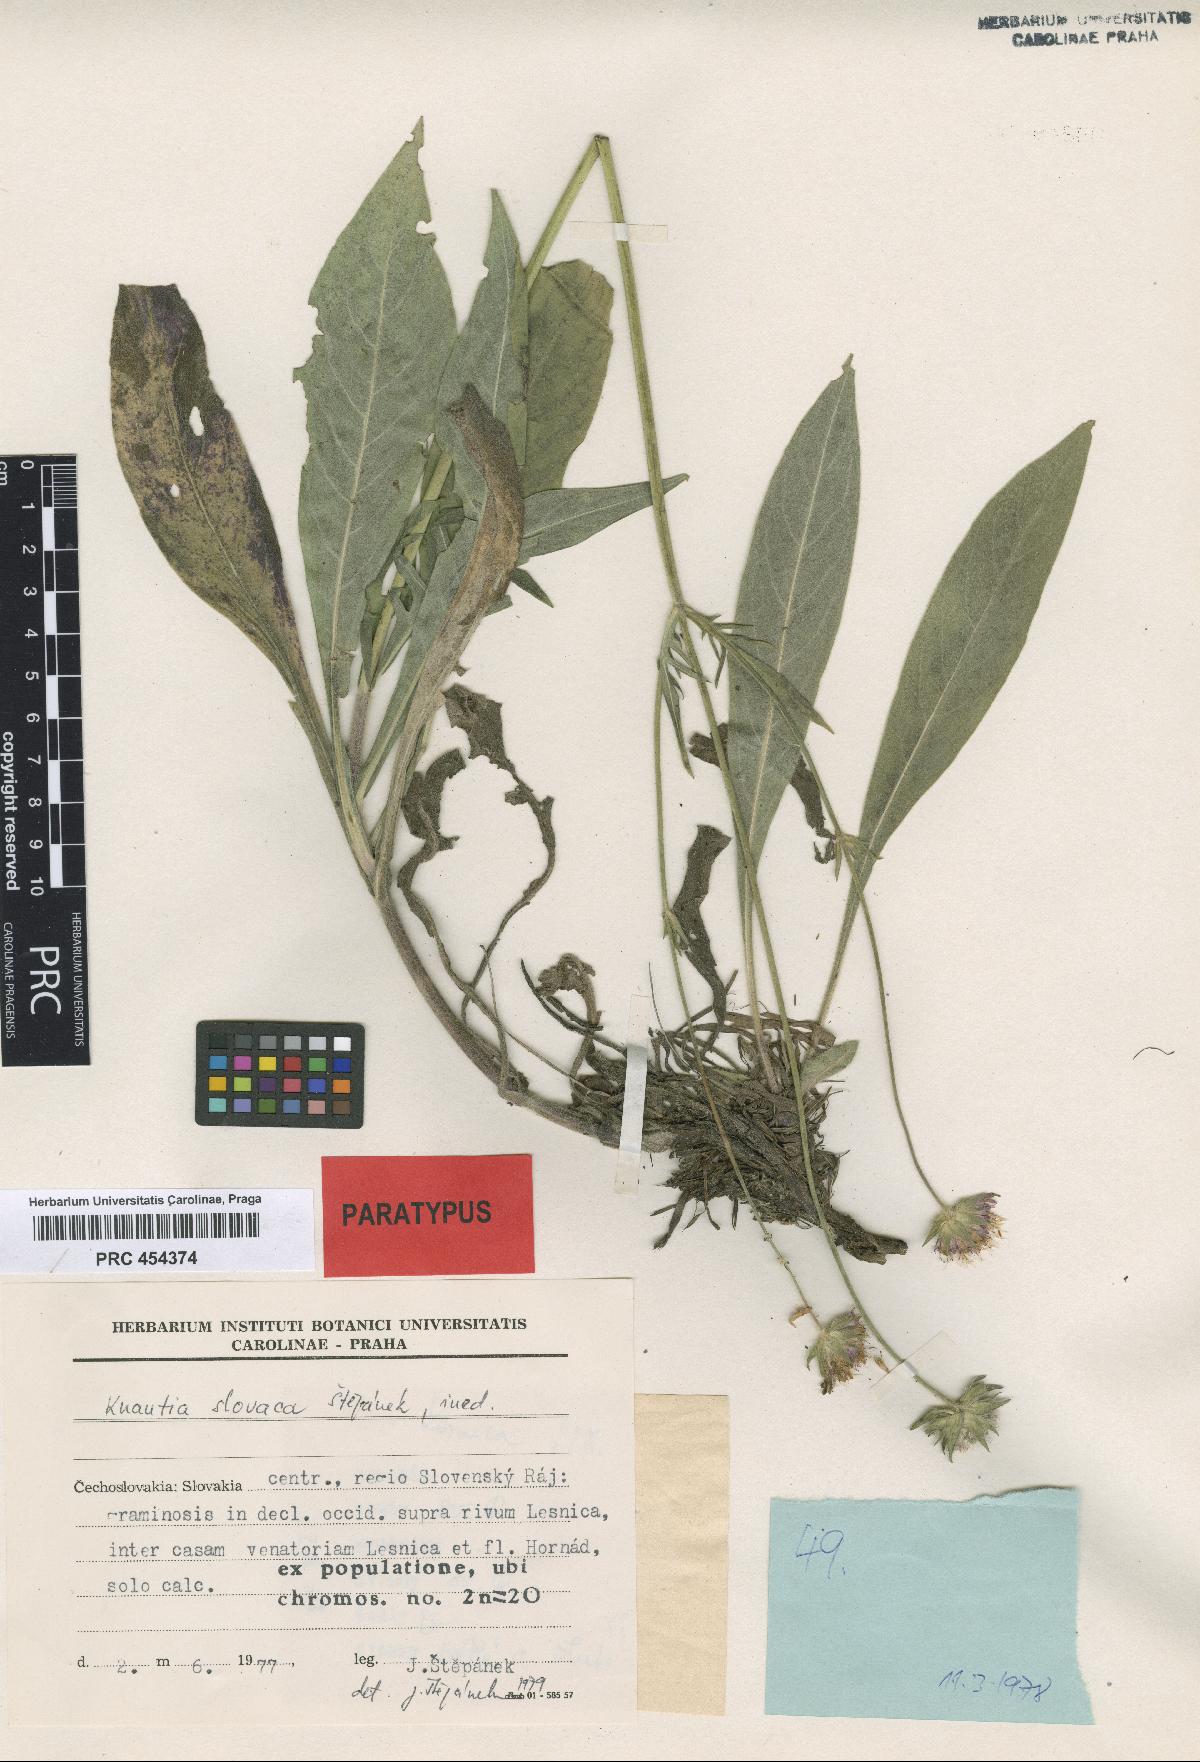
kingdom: Plantae
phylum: Tracheophyta
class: Magnoliopsida
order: Dipsacales
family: Caprifoliaceae
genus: Knautia
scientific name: Knautia slovaca
